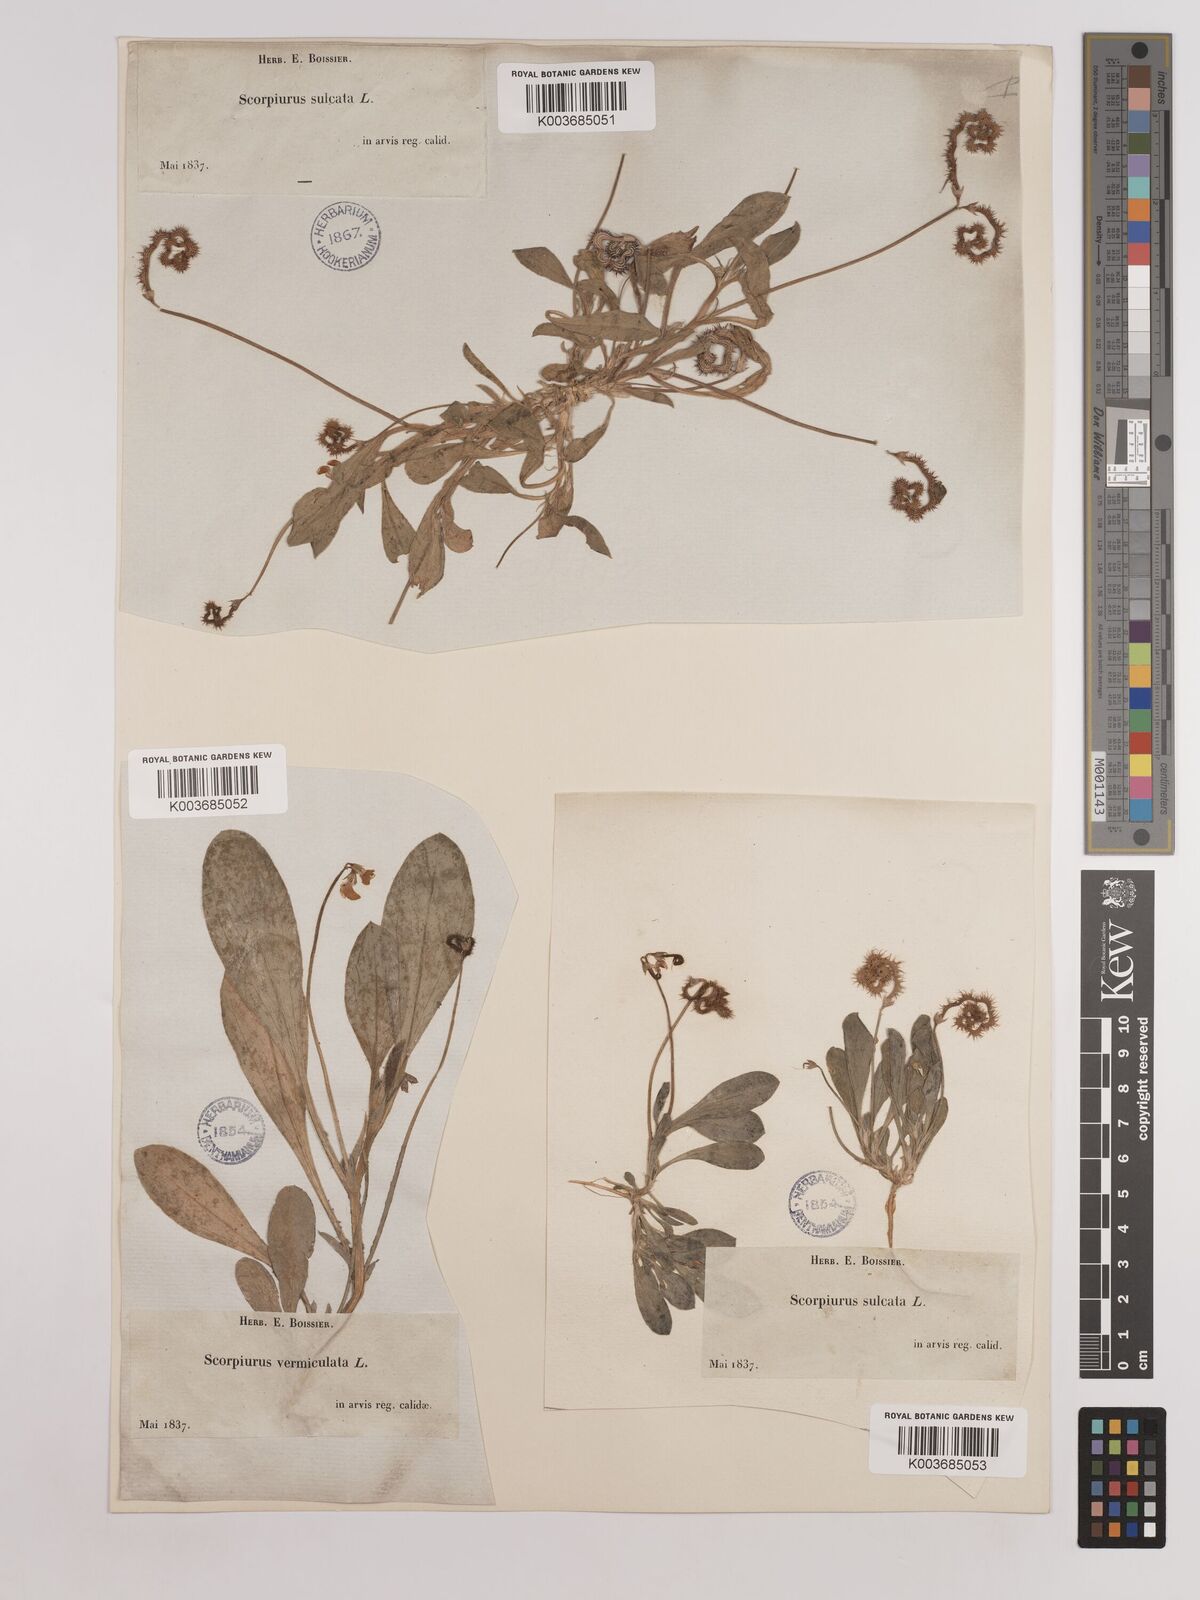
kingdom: Plantae
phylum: Tracheophyta
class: Magnoliopsida
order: Fabales
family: Fabaceae
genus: Scorpiurus
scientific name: Scorpiurus muricatus
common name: Caterpillar-plant
